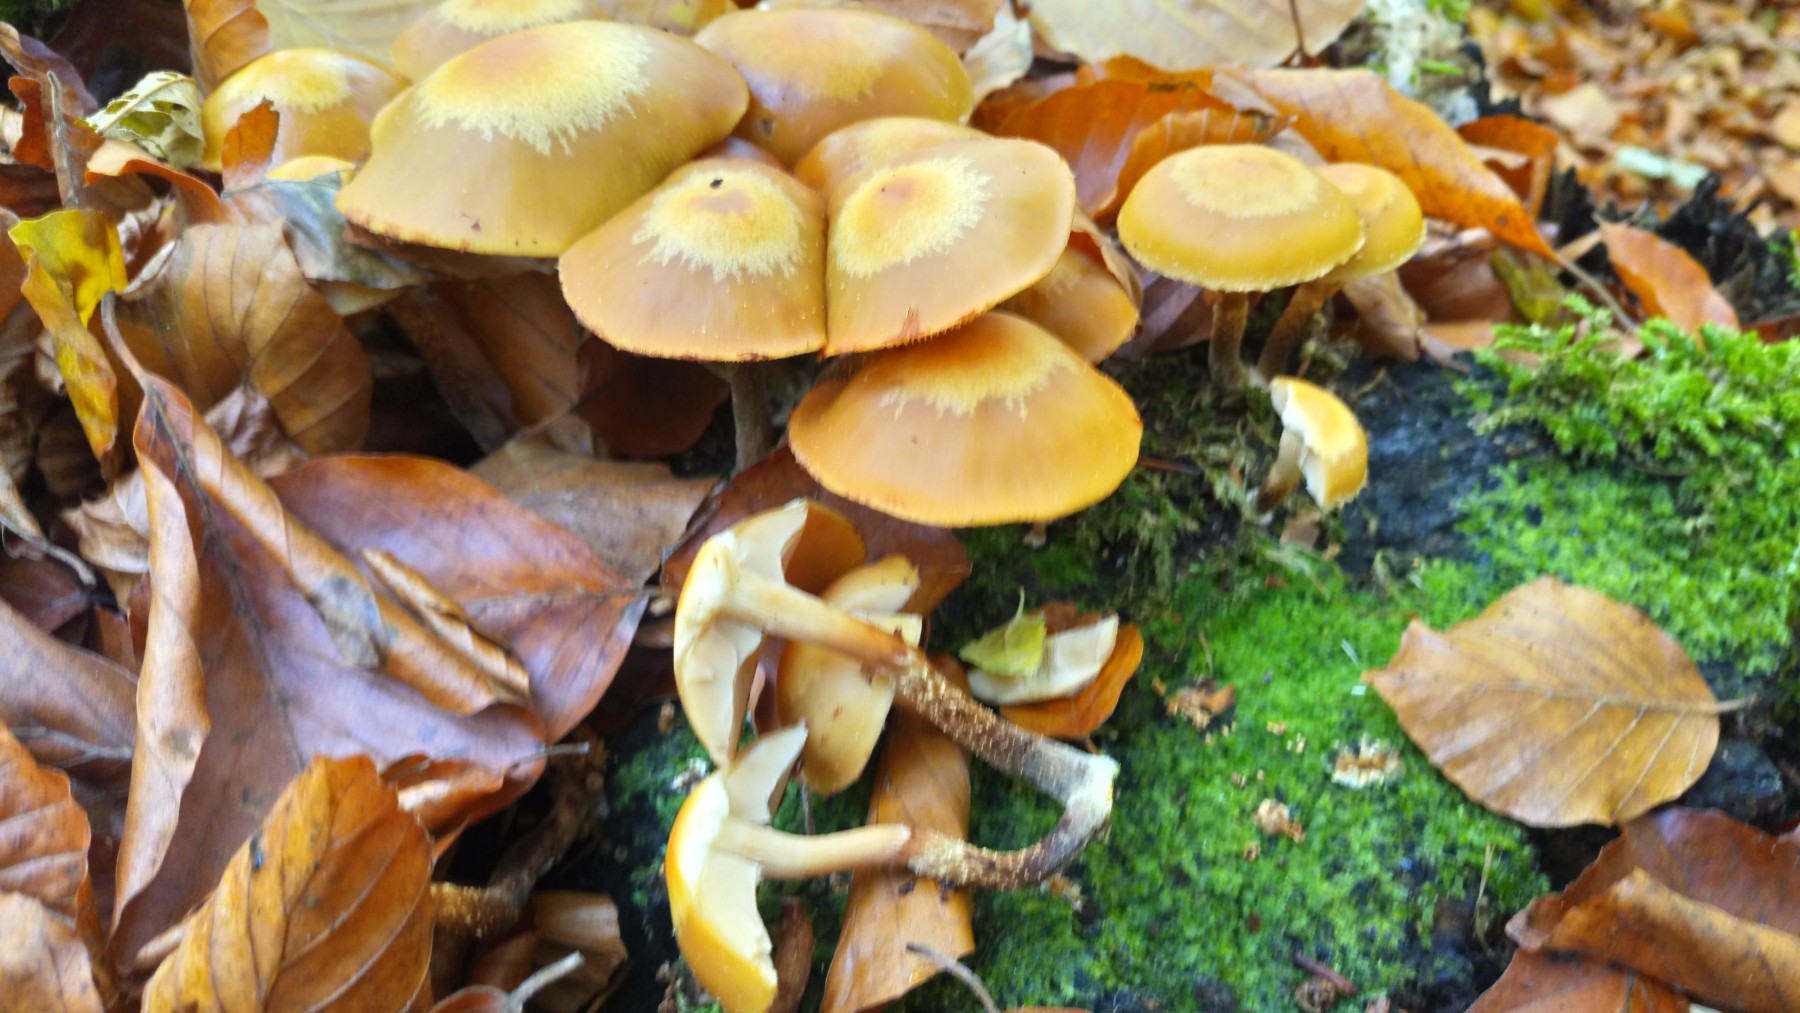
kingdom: Fungi
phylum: Basidiomycota
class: Agaricomycetes
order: Agaricales
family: Strophariaceae
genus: Kuehneromyces
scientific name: Kuehneromyces mutabilis
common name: foranderlig skælhat
